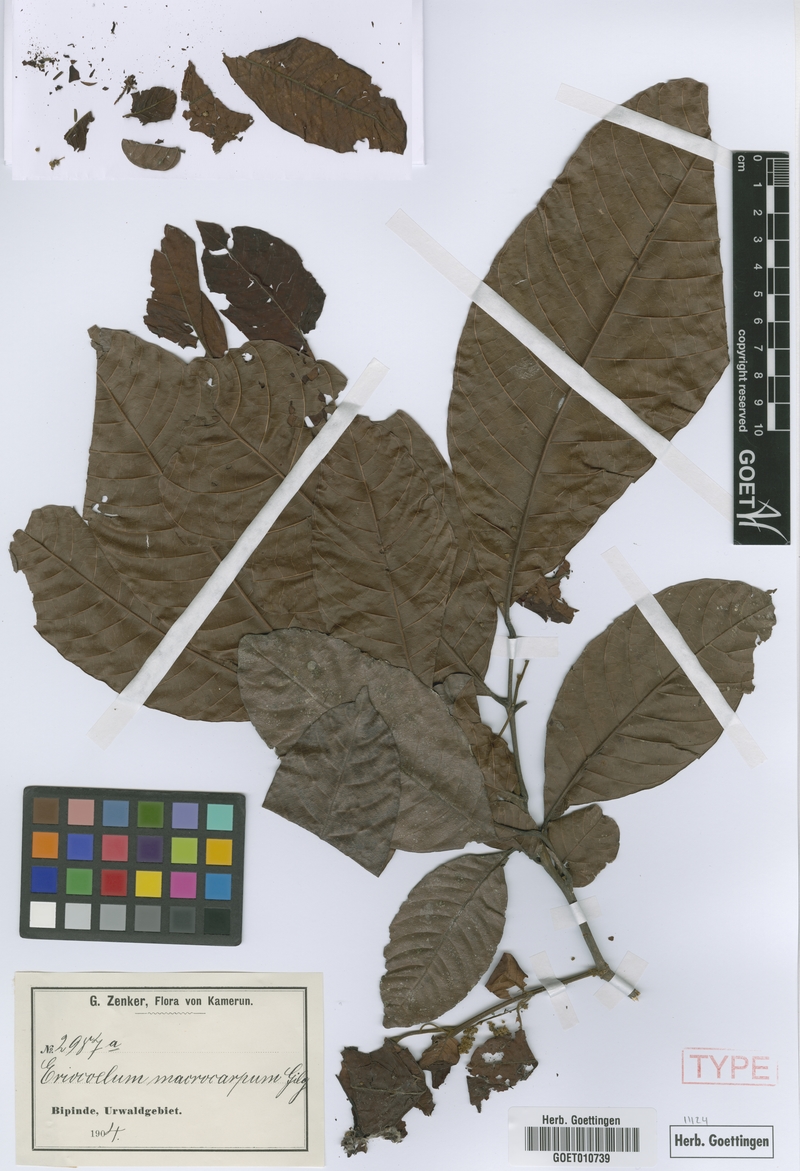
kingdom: Plantae
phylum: Tracheophyta
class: Magnoliopsida
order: Sapindales
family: Sapindaceae
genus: Eriocoelum
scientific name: Eriocoelum macrocarpum
